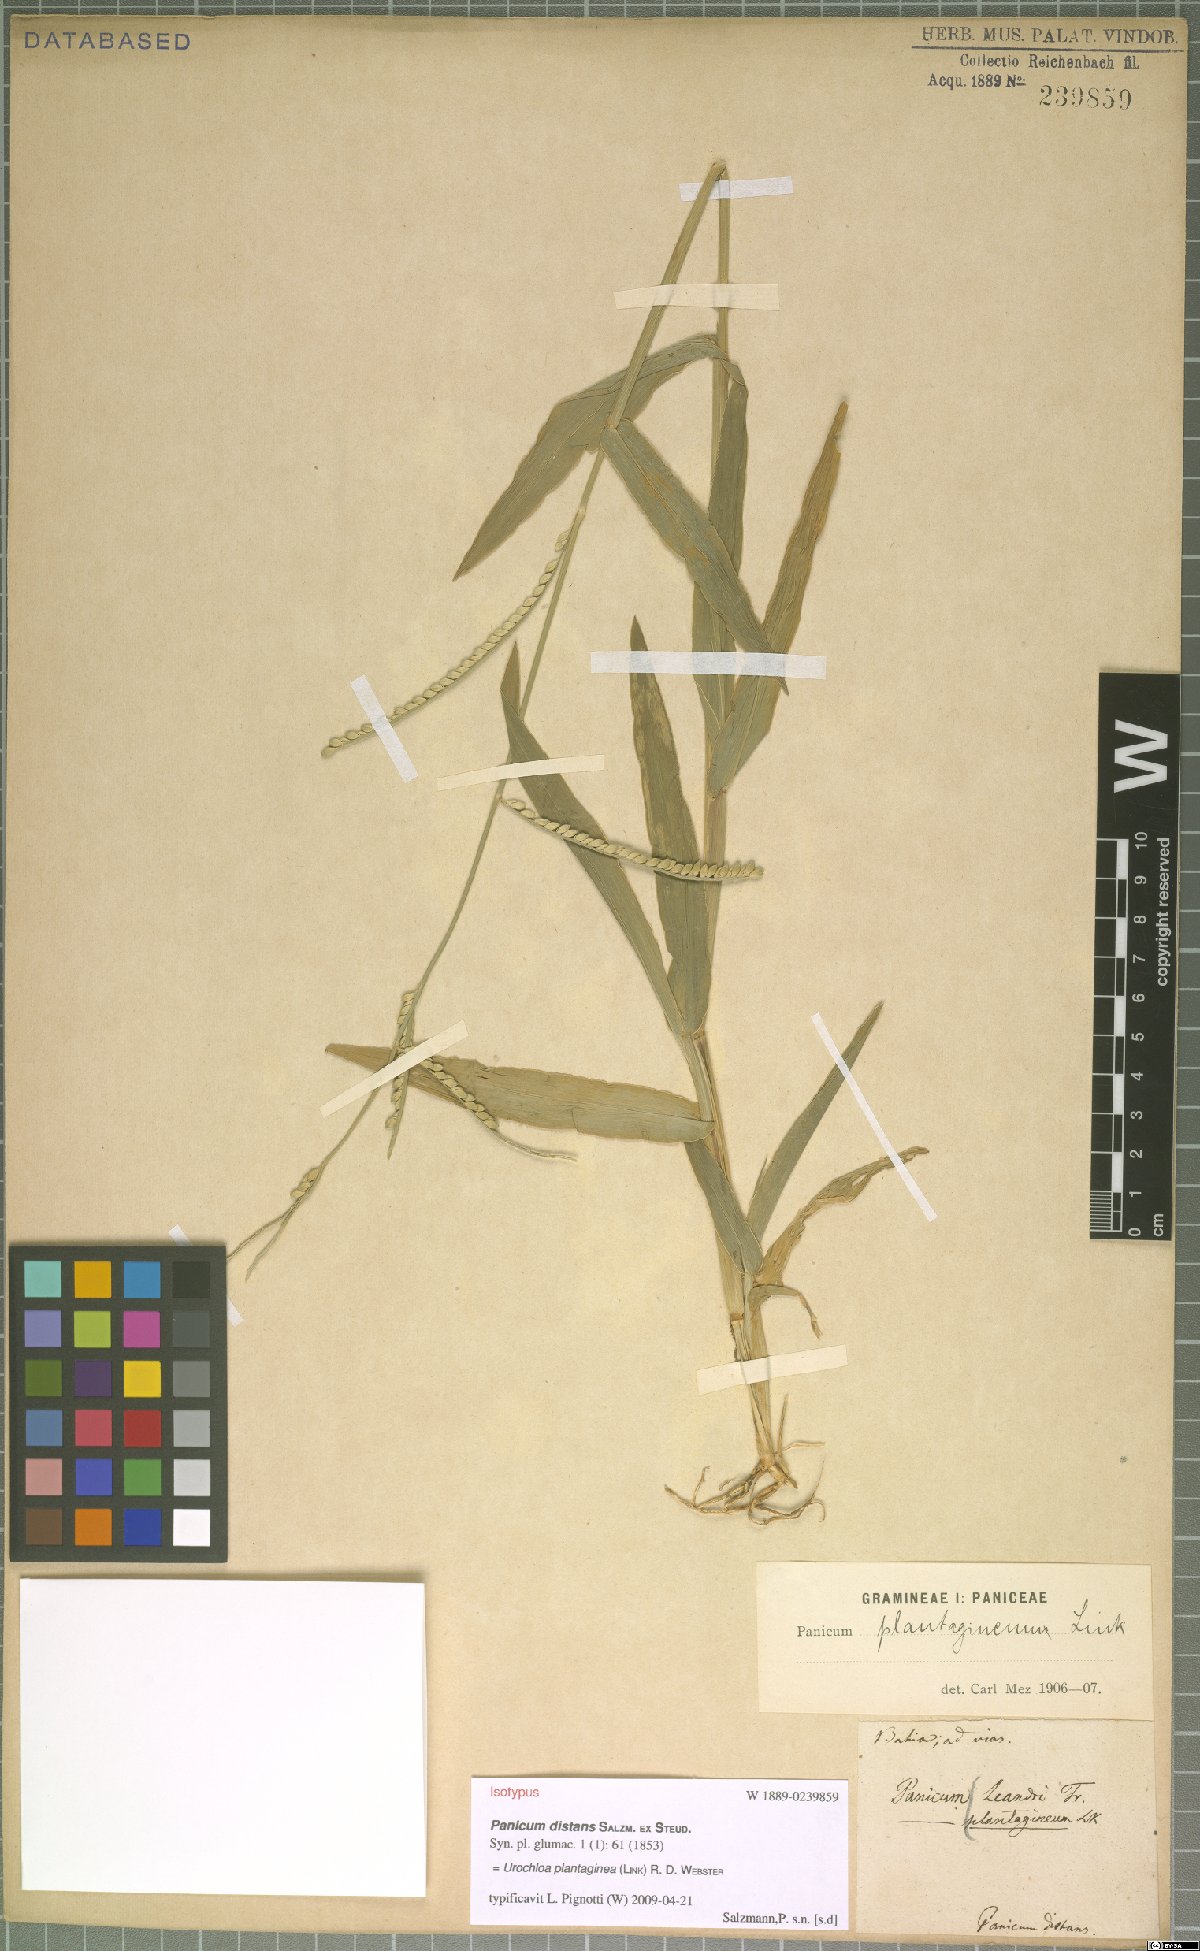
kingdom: Plantae
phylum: Tracheophyta
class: Liliopsida
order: Poales
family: Poaceae
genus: Urochloa
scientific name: Urochloa plantaginea
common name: Plantain signalgrass
